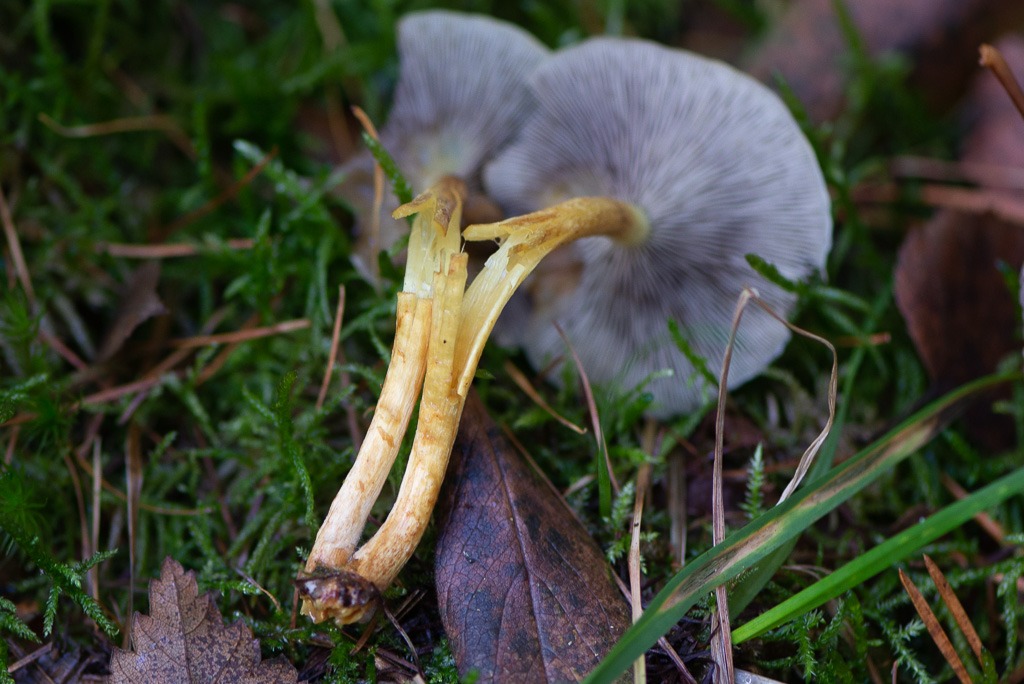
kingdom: Fungi
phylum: Basidiomycota
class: Agaricomycetes
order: Agaricales
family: Strophariaceae
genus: Hypholoma
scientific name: Hypholoma capnoides
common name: gran-svovlhat
